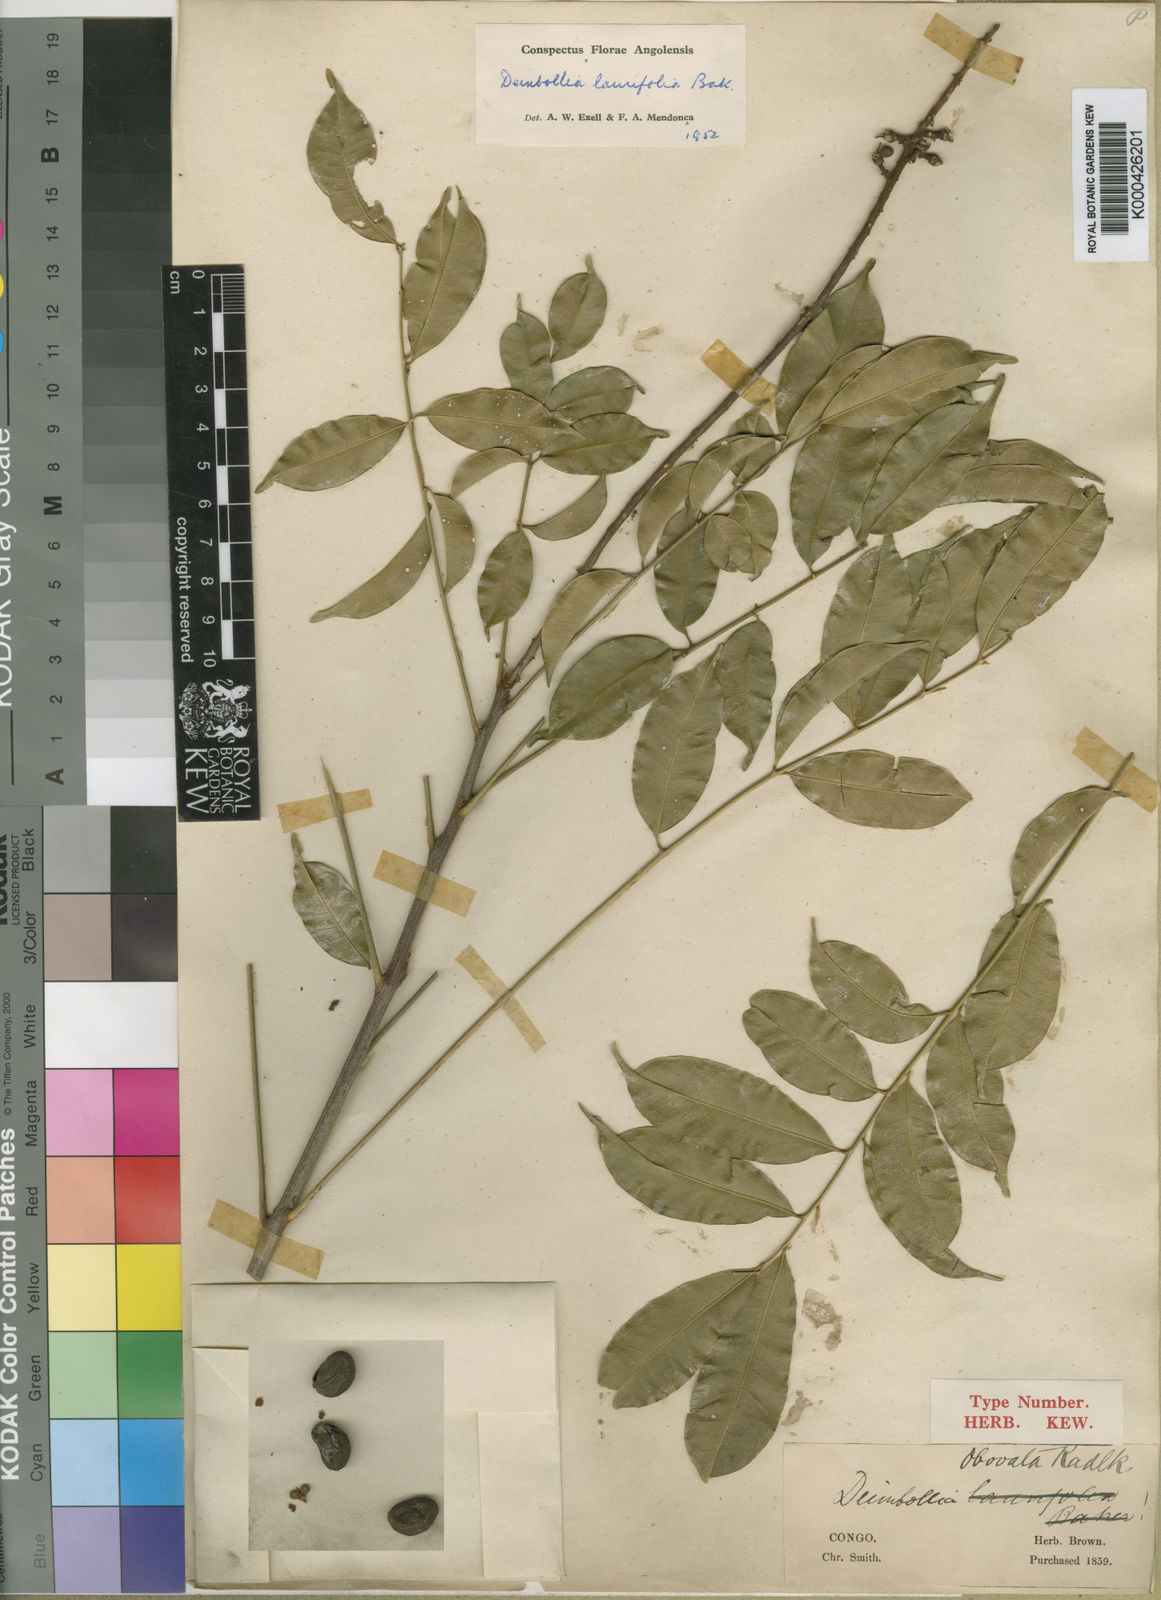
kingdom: Plantae
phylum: Tracheophyta
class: Magnoliopsida
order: Sapindales
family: Sapindaceae
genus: Deinbollia
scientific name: Deinbollia laurifolia
